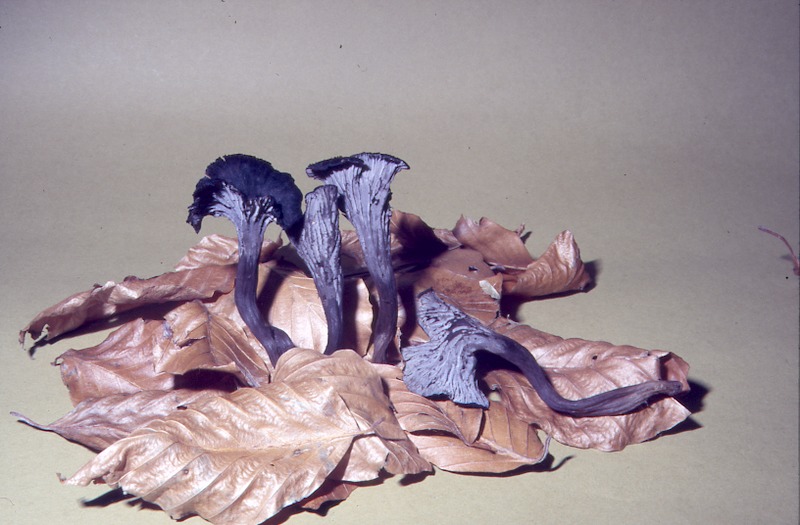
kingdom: Fungi
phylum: Basidiomycota
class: Agaricomycetes
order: Cantharellales
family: Hydnaceae
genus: Cantharellus
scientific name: Cantharellus cinereus
